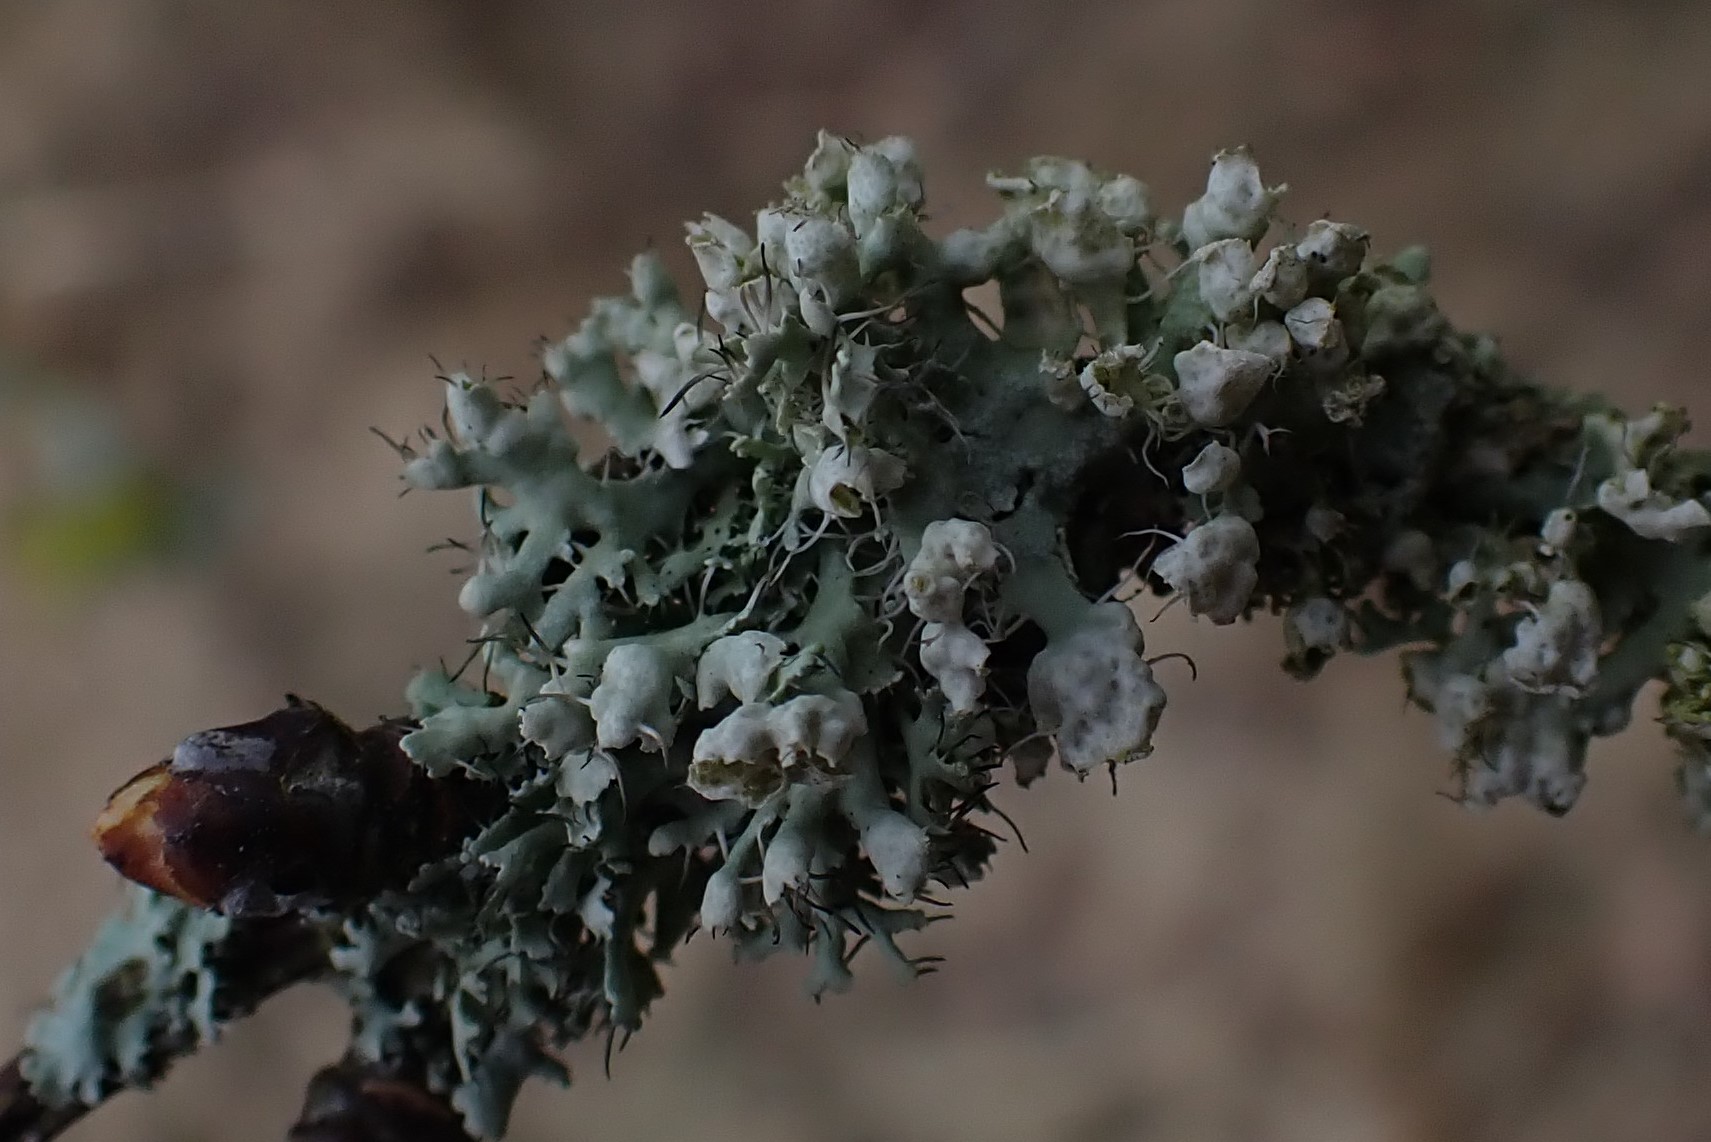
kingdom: Fungi
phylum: Ascomycota
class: Lecanoromycetes
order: Caliciales
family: Physciaceae
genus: Physcia
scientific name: Physcia adscendens
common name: hætte-rosetlav
